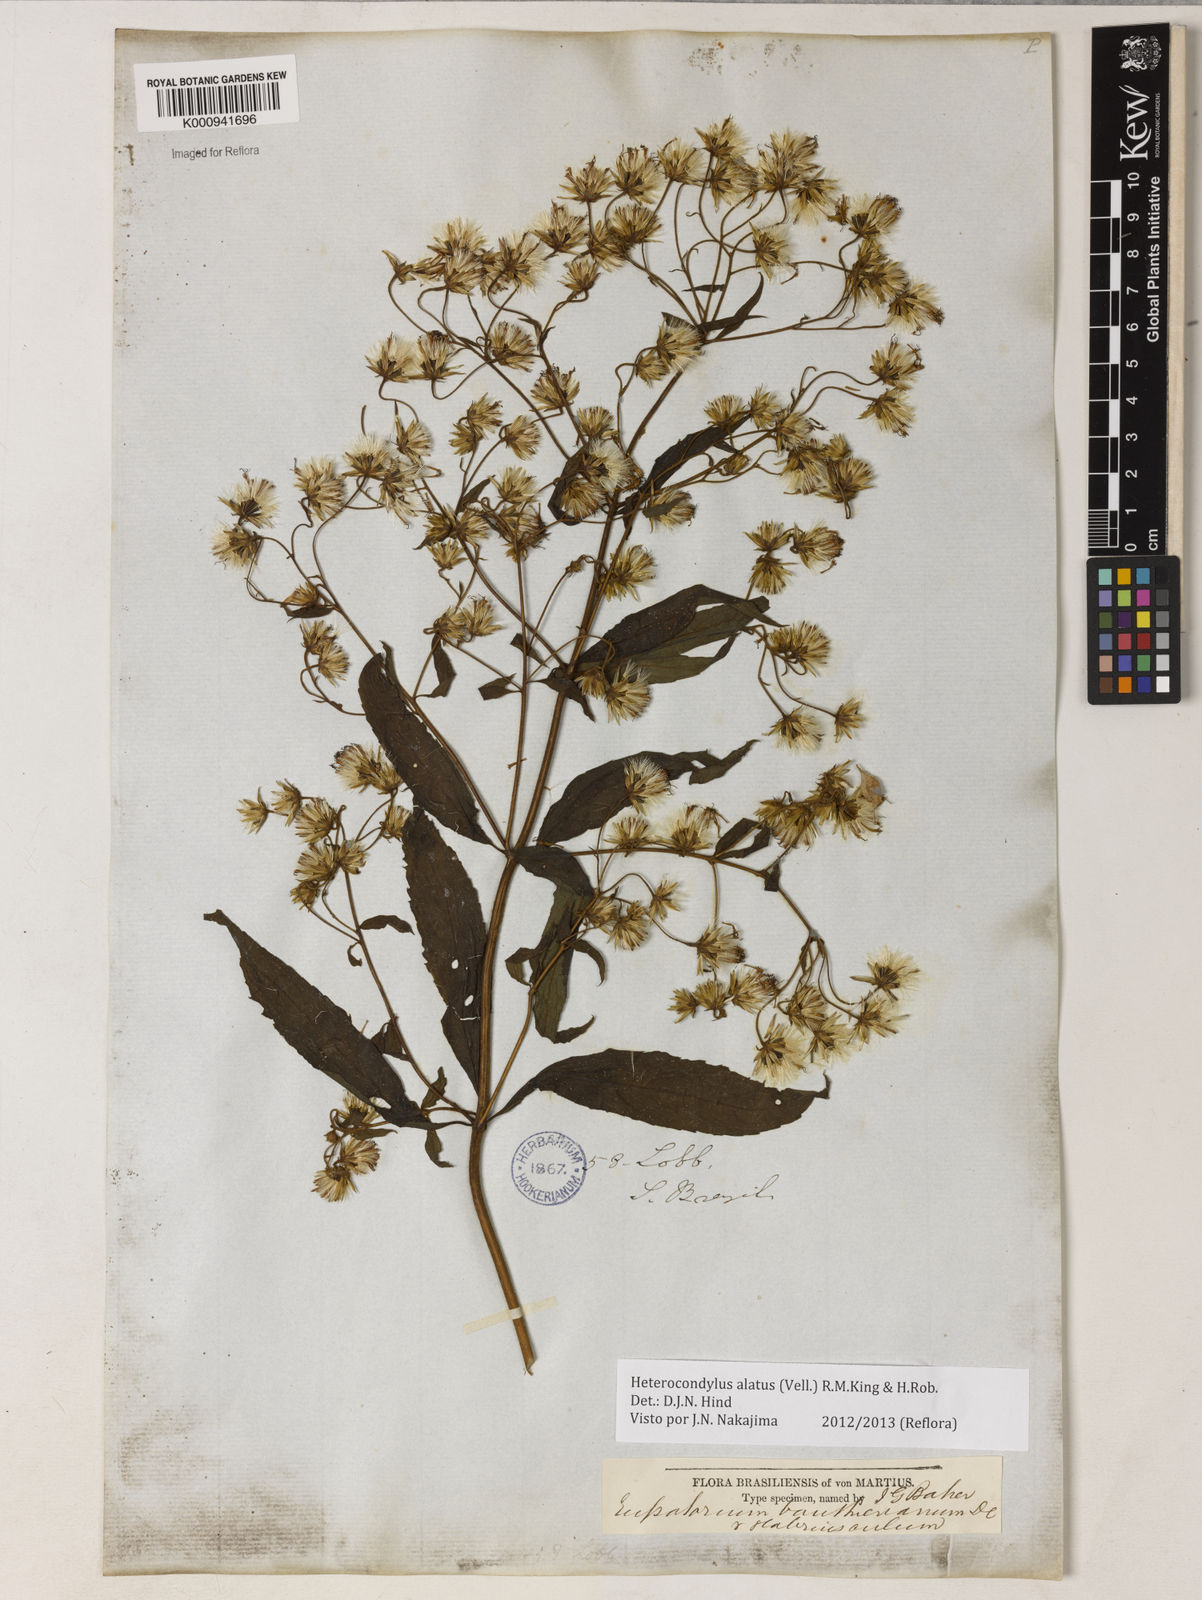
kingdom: Plantae
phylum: Tracheophyta
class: Magnoliopsida
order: Asterales
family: Asteraceae
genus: Heterocondylus
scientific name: Heterocondylus alatus
